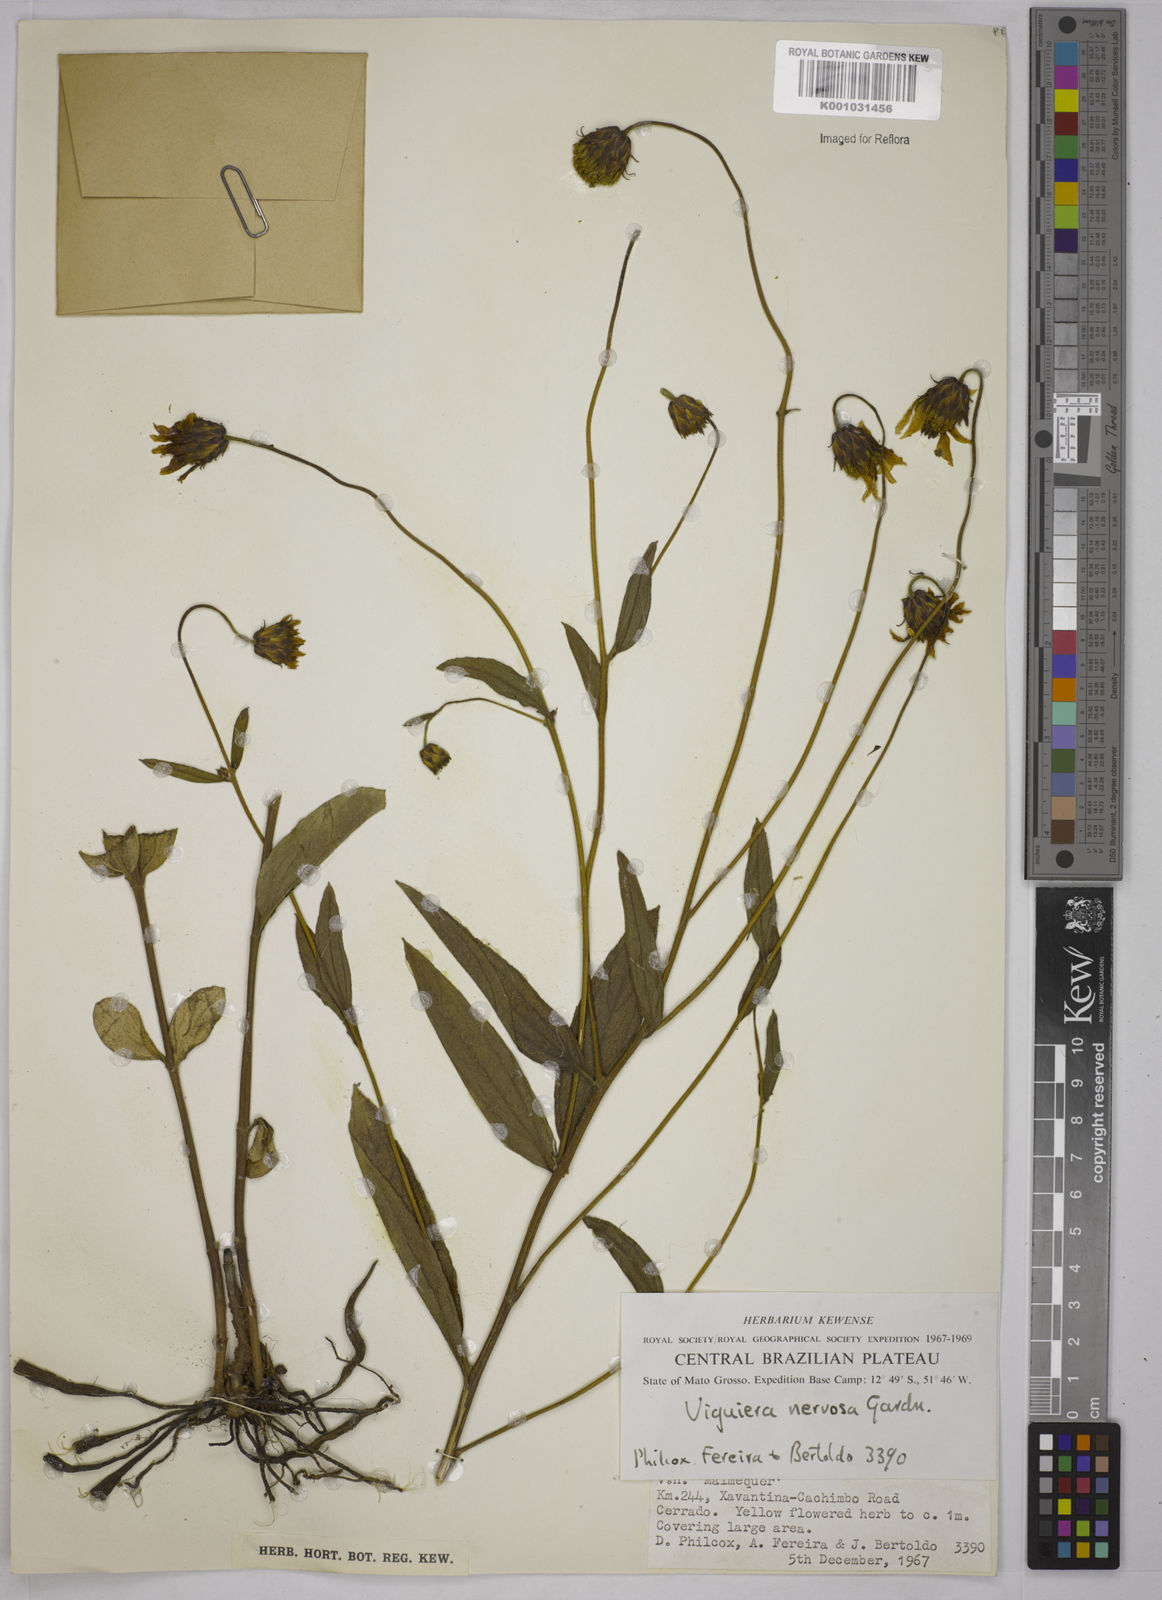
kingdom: Plantae
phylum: Tracheophyta
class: Magnoliopsida
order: Asterales
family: Asteraceae
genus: Aldama
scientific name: Aldama oblongifolia
